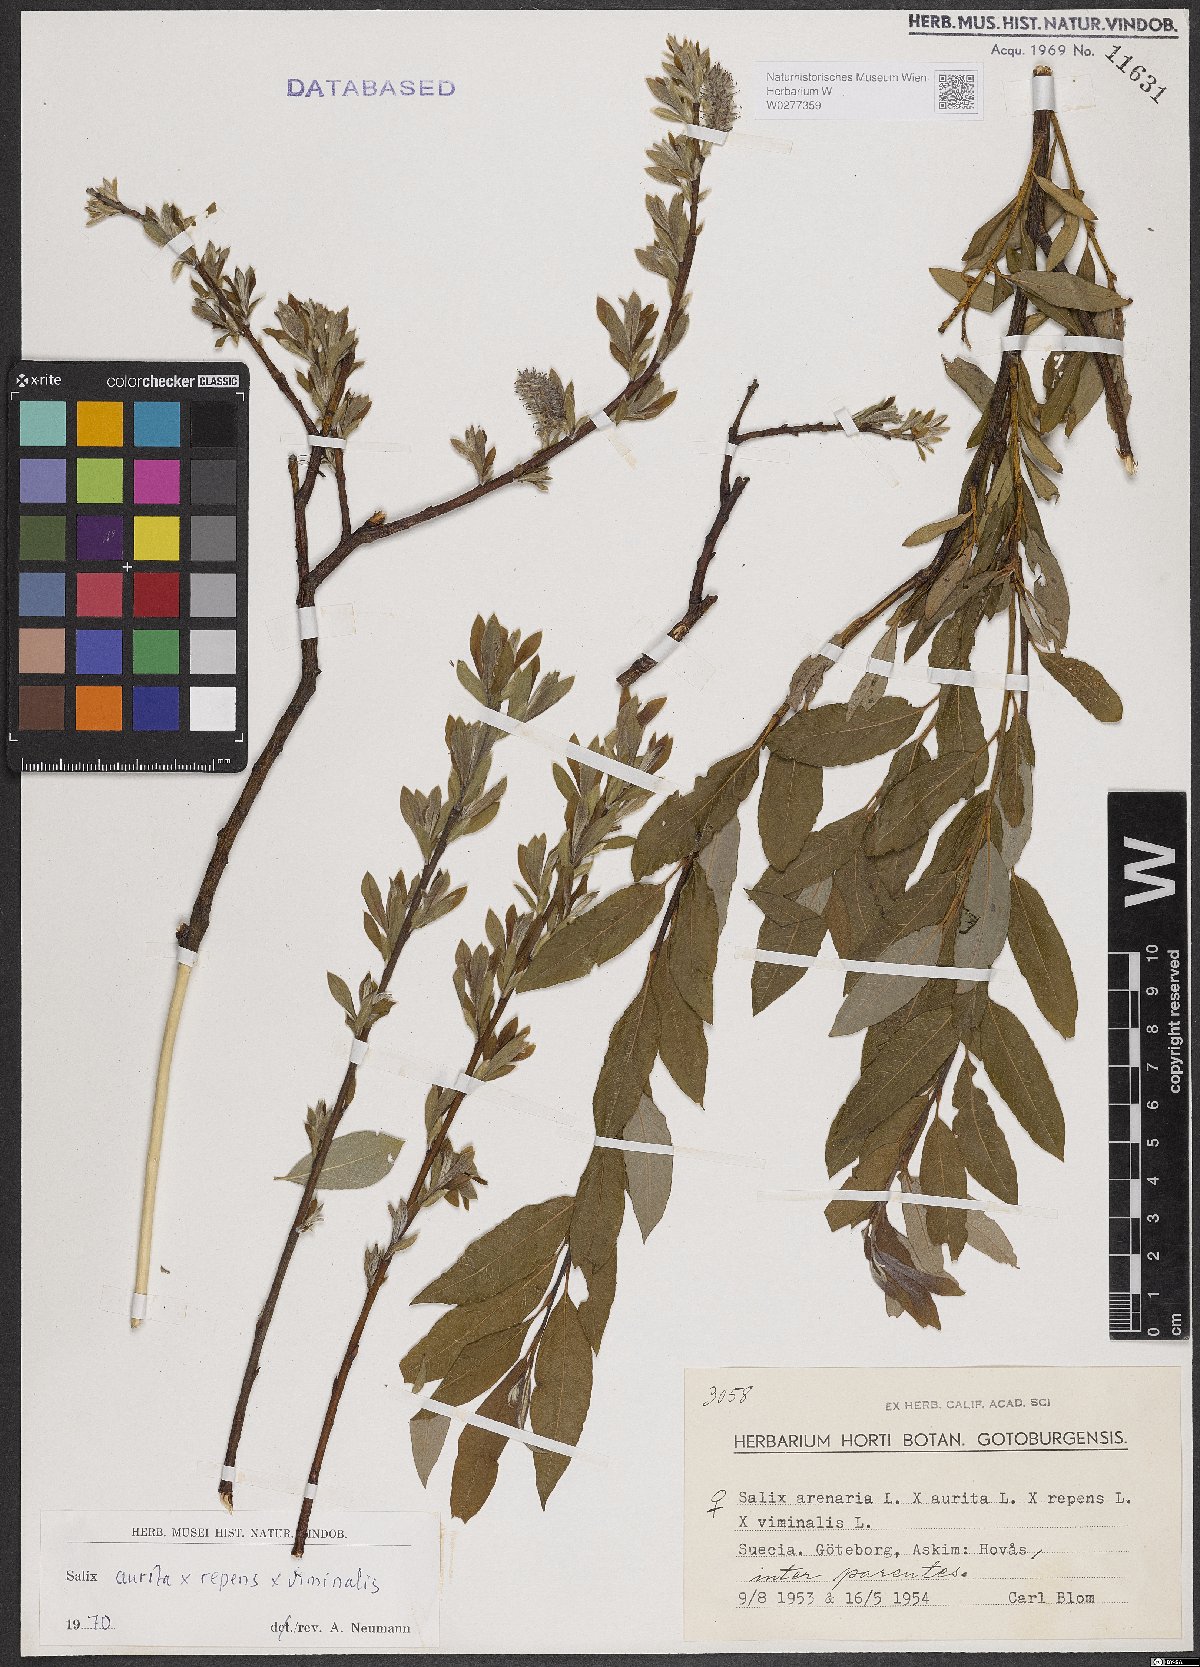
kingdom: Plantae
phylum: Tracheophyta
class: Magnoliopsida
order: Malpighiales
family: Salicaceae
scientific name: Salicaceae
